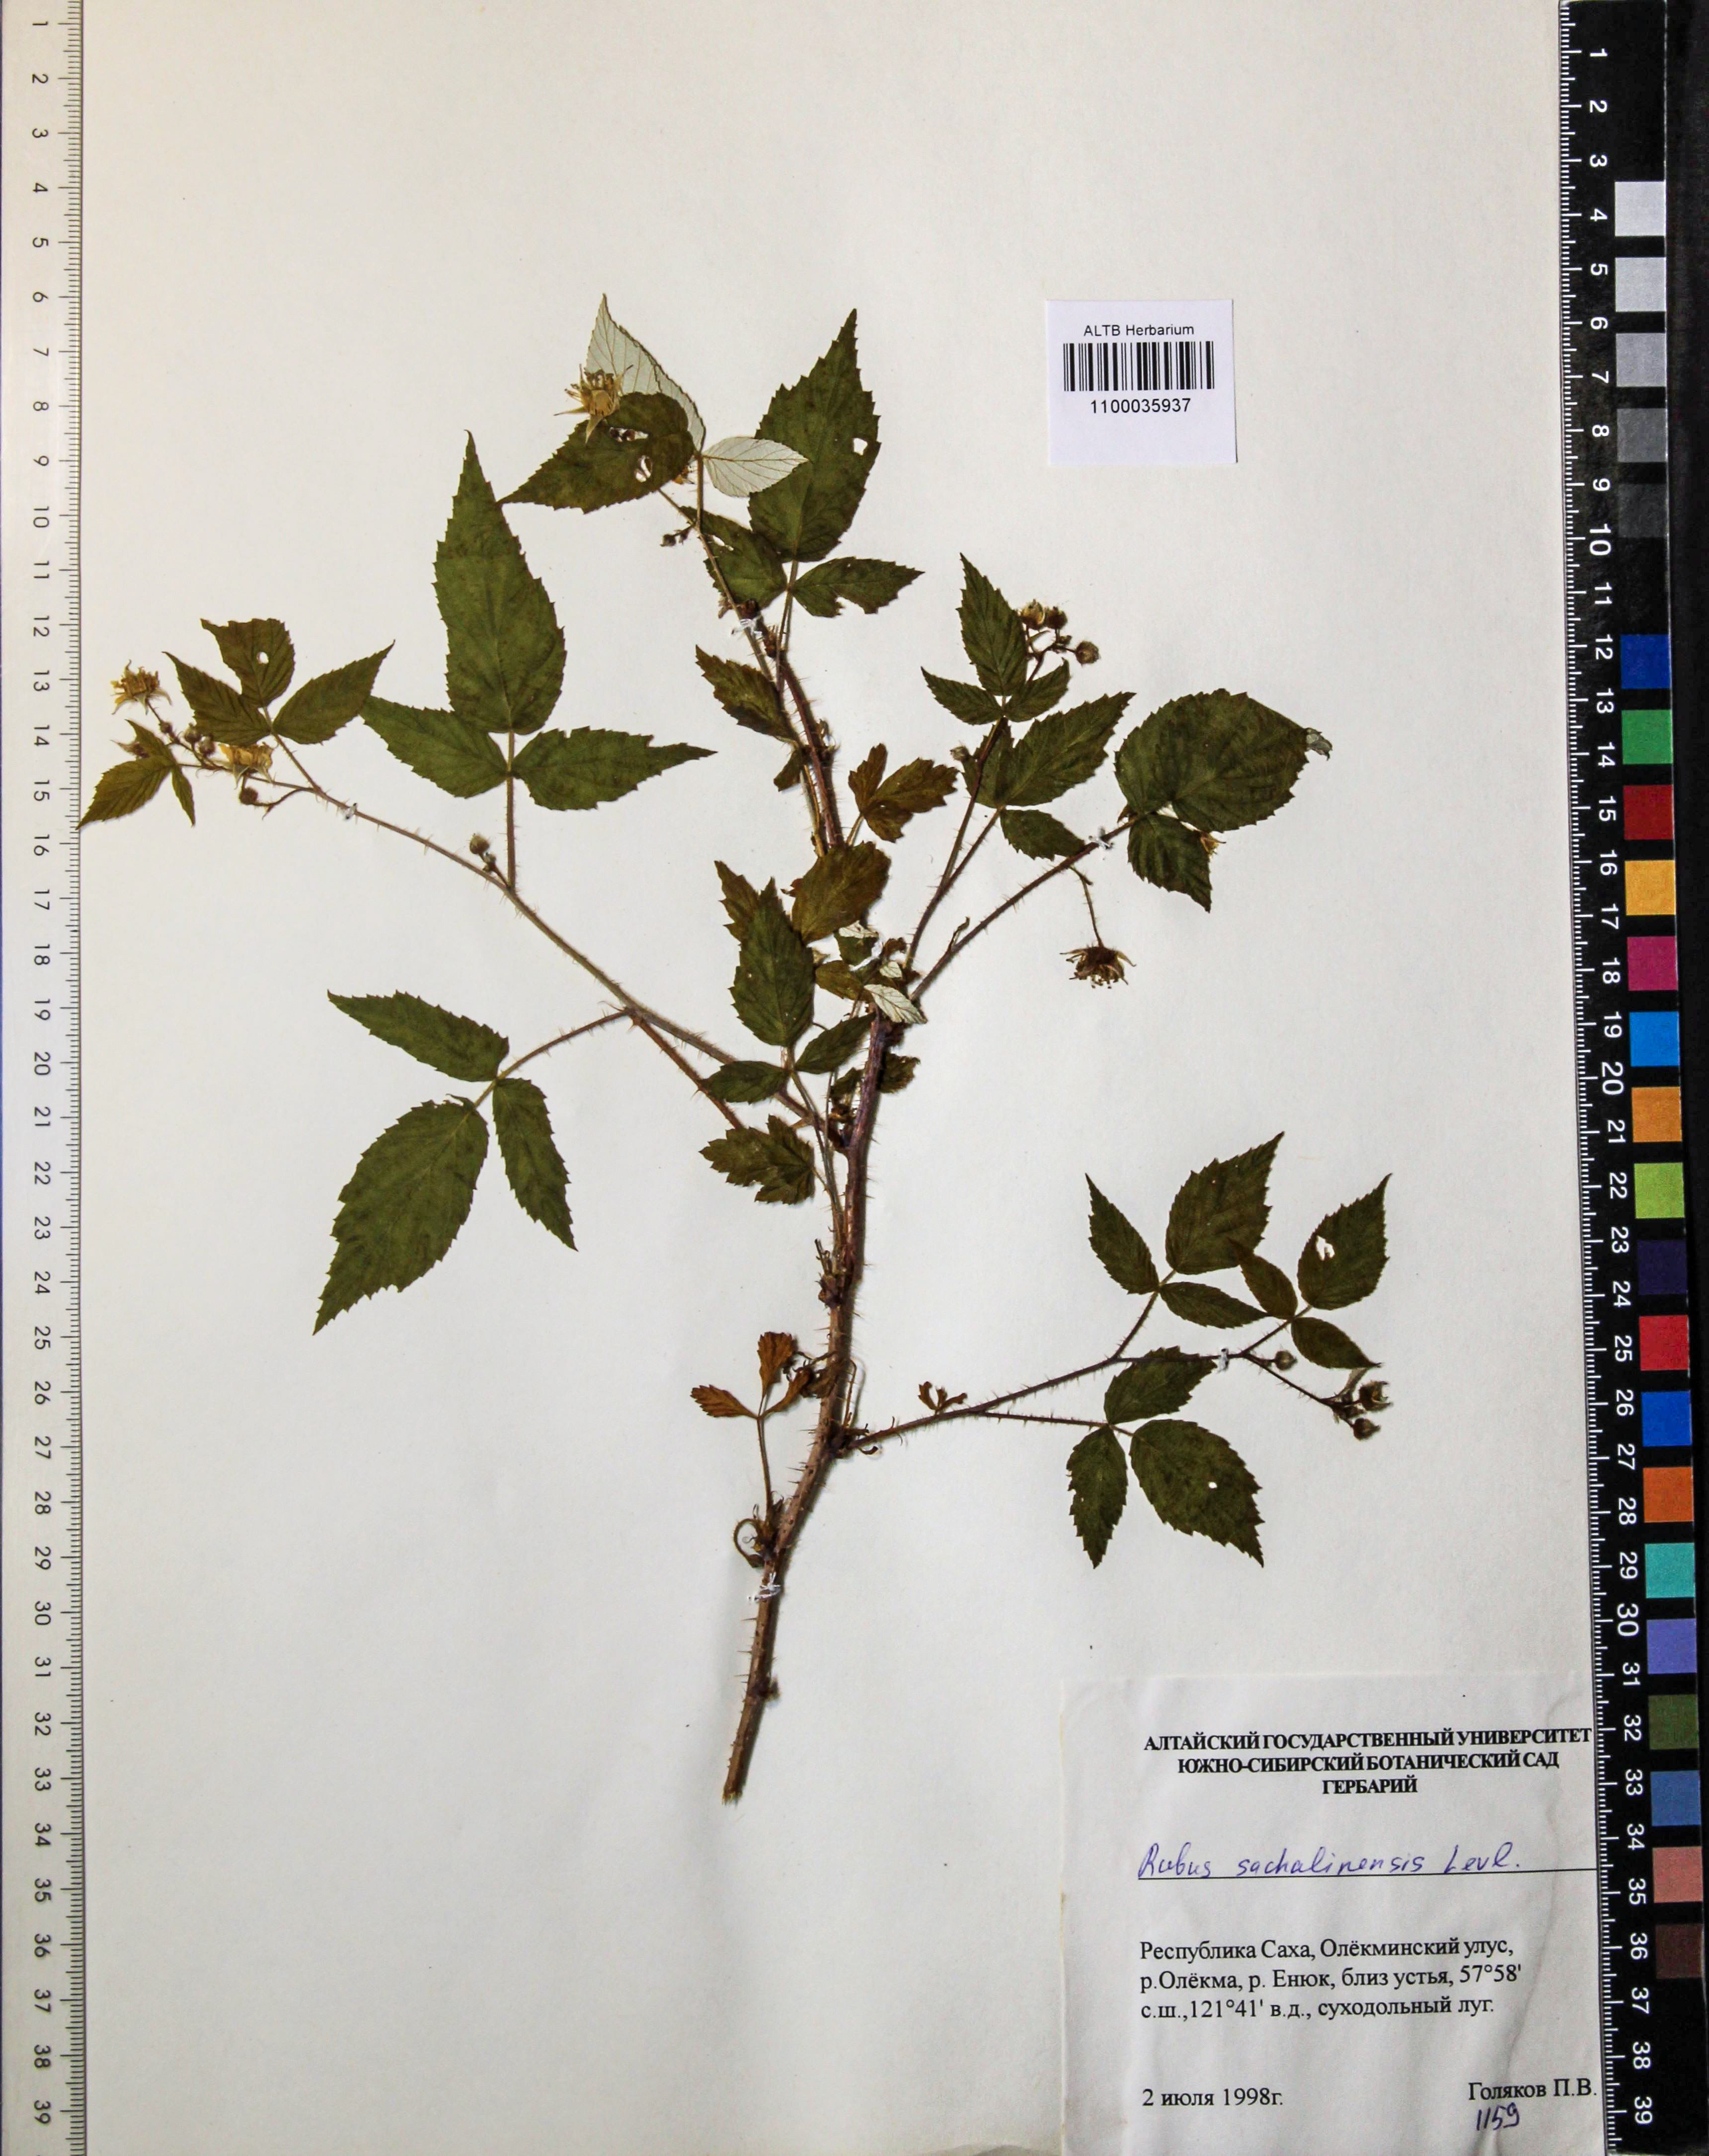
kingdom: Plantae
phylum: Tracheophyta
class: Magnoliopsida
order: Rosales
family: Rosaceae
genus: Rubus
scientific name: Rubus sachalinensis
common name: Red raspberry
